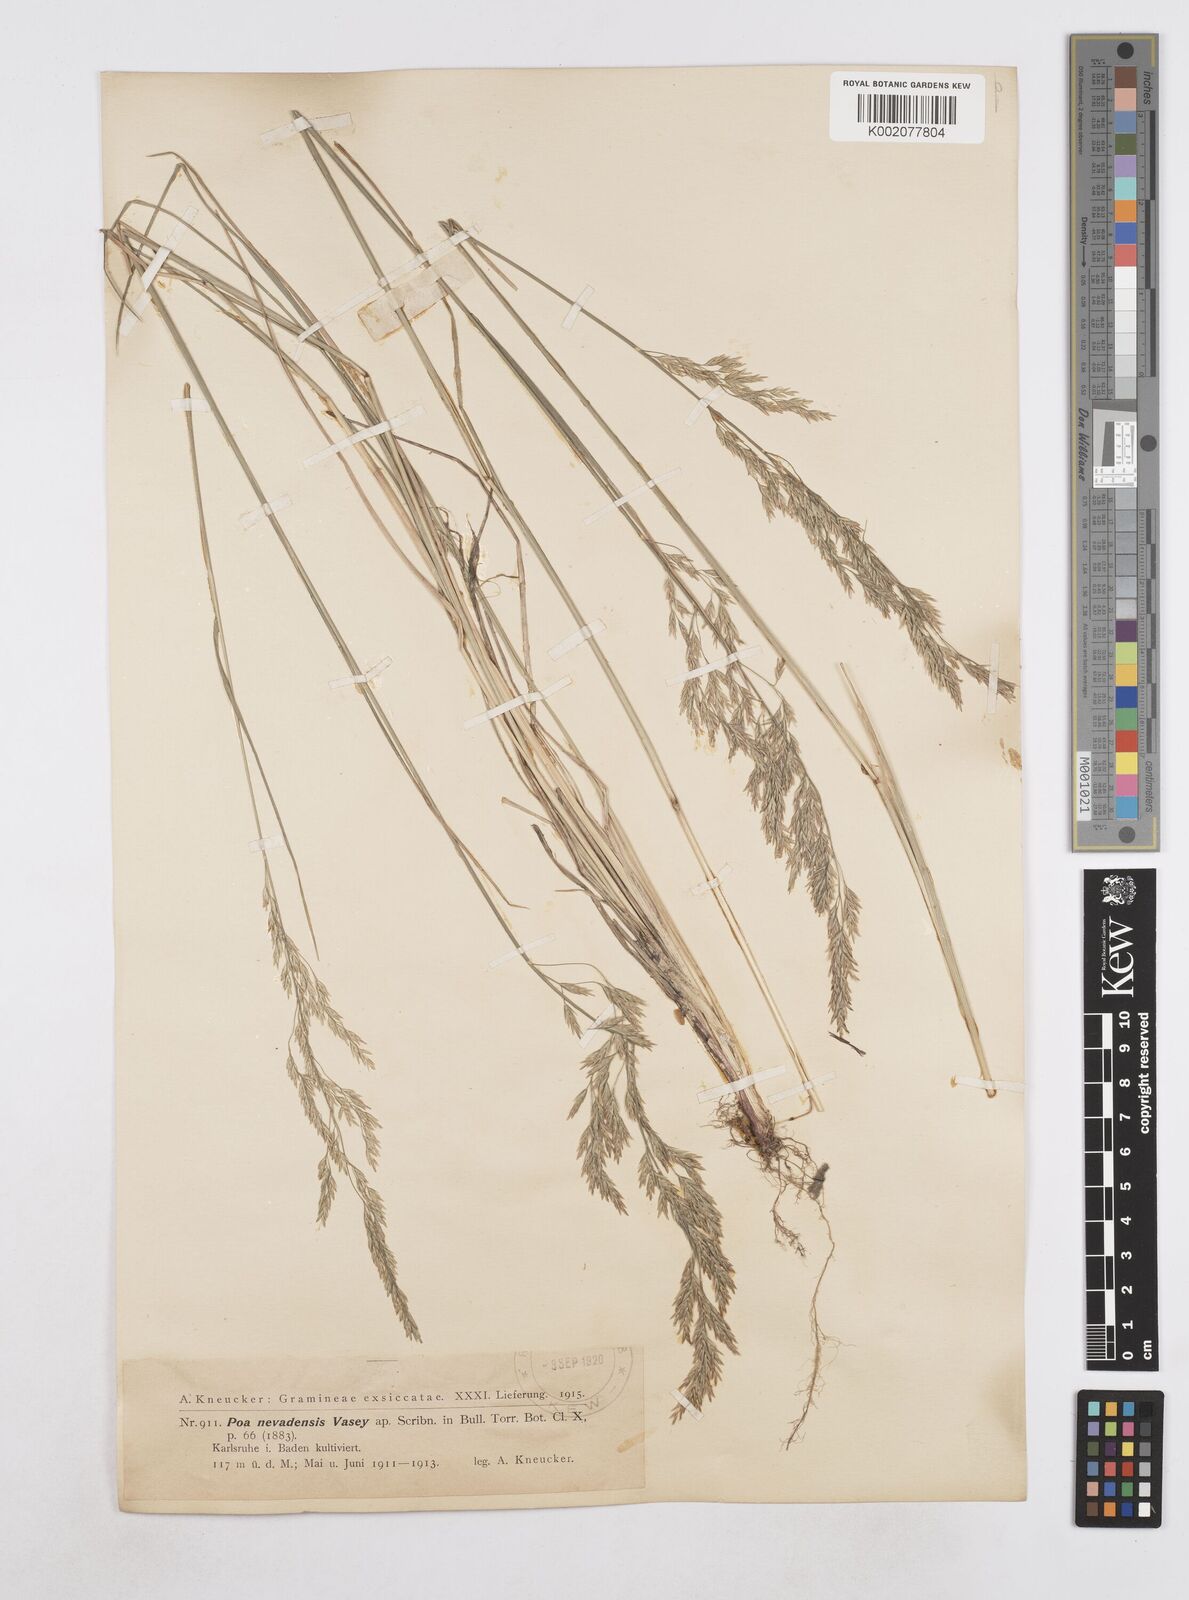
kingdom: Plantae
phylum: Tracheophyta
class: Liliopsida
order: Poales
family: Poaceae
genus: Poa
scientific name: Poa secunda
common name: Sandberg bluegrass
